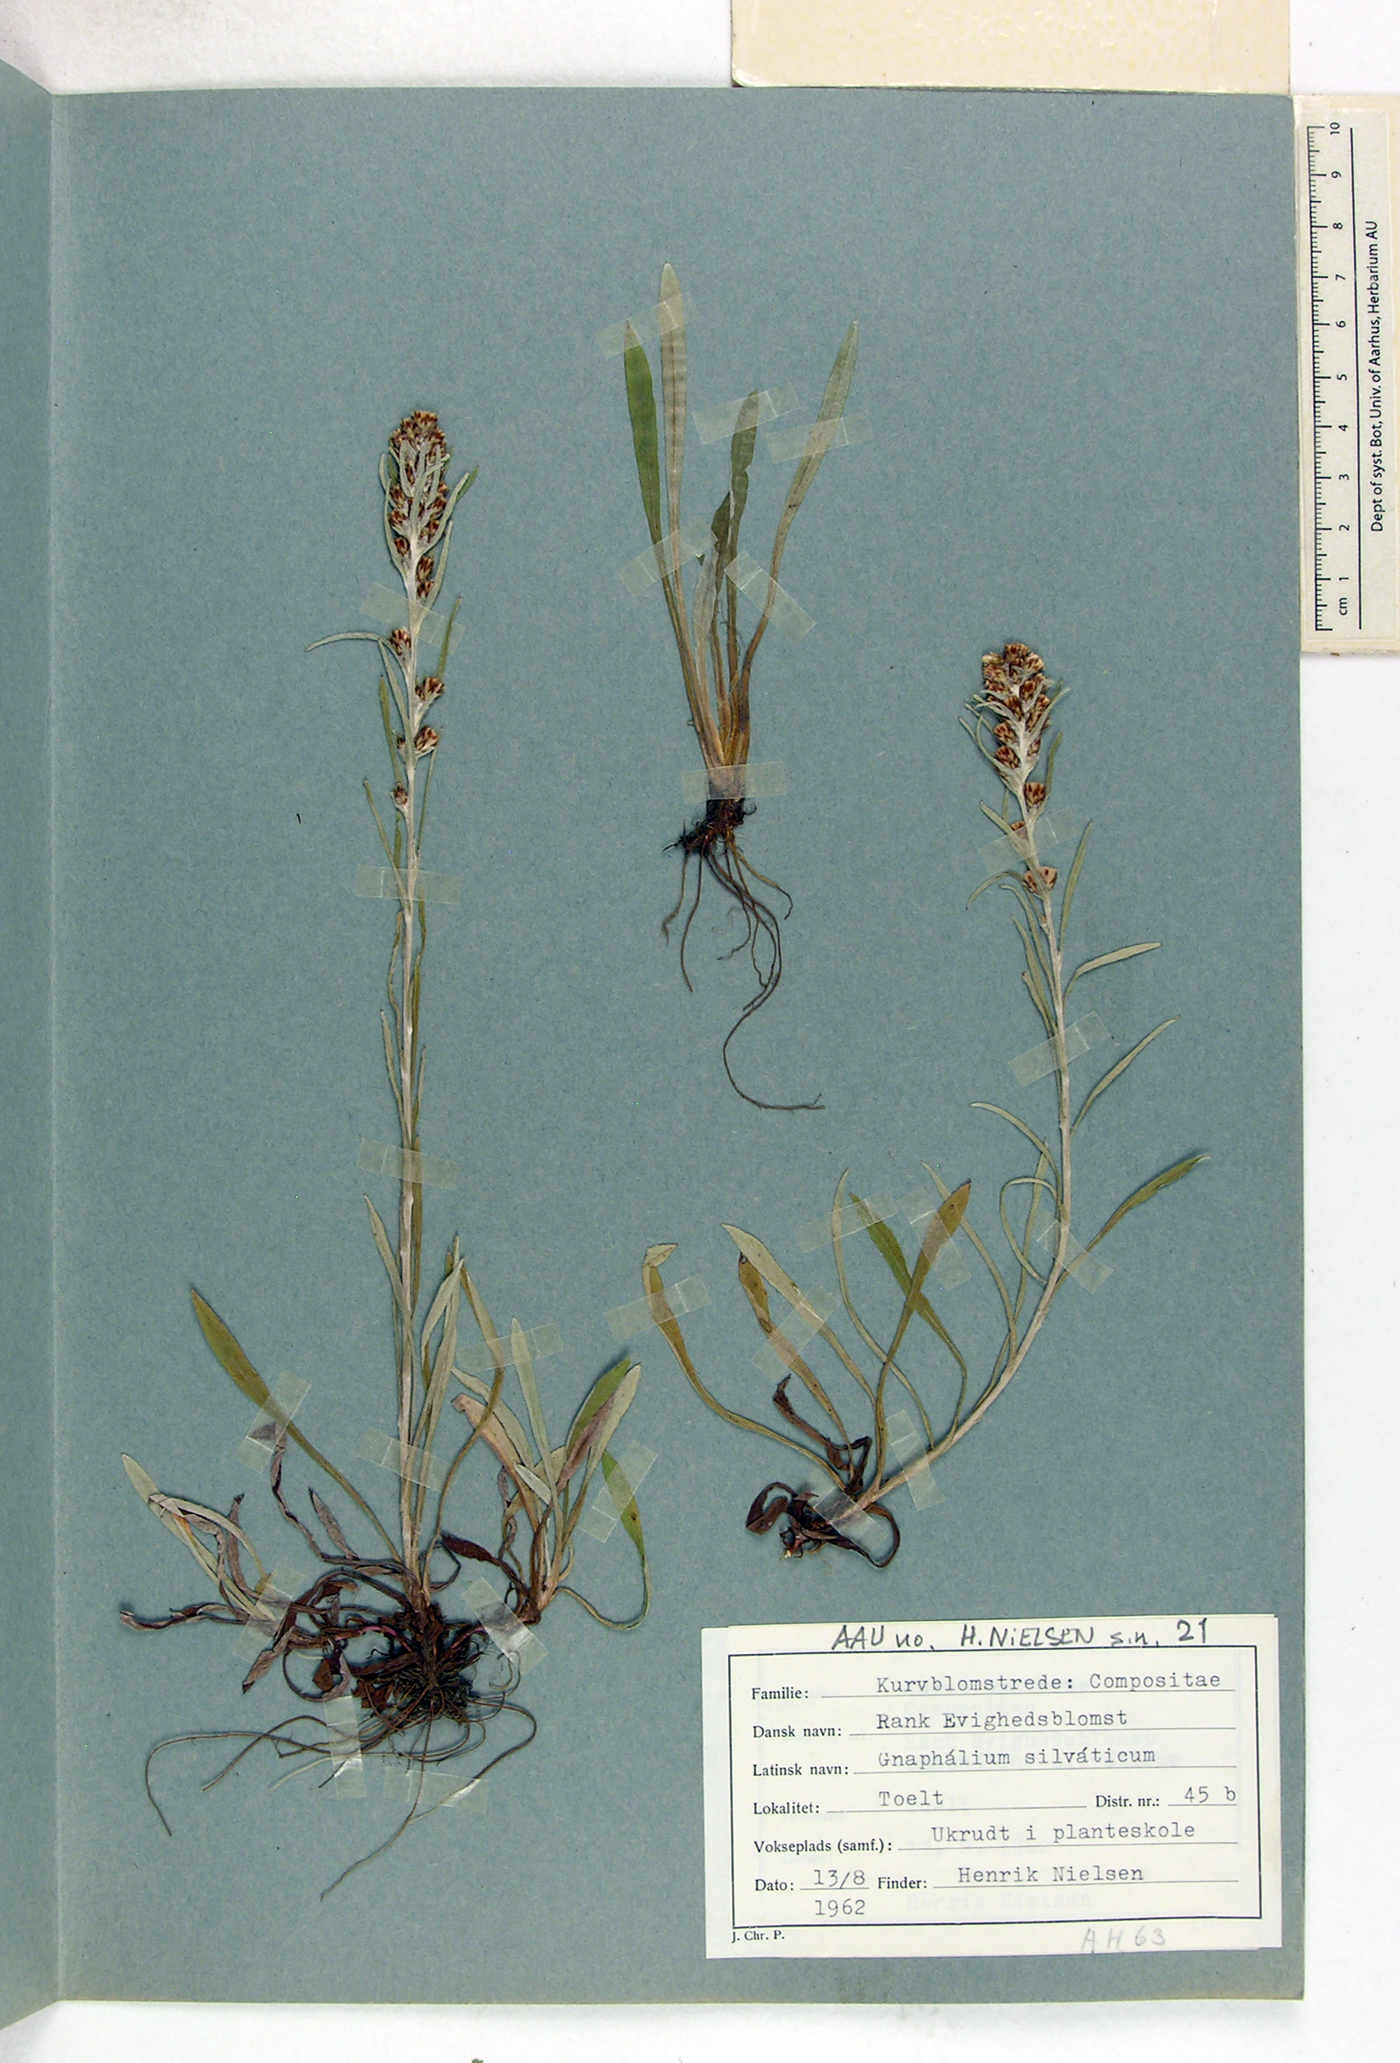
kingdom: Plantae
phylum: Tracheophyta
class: Magnoliopsida
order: Asterales
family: Asteraceae
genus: Omalotheca
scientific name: Omalotheca sylvatica
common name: Heath cudweed
